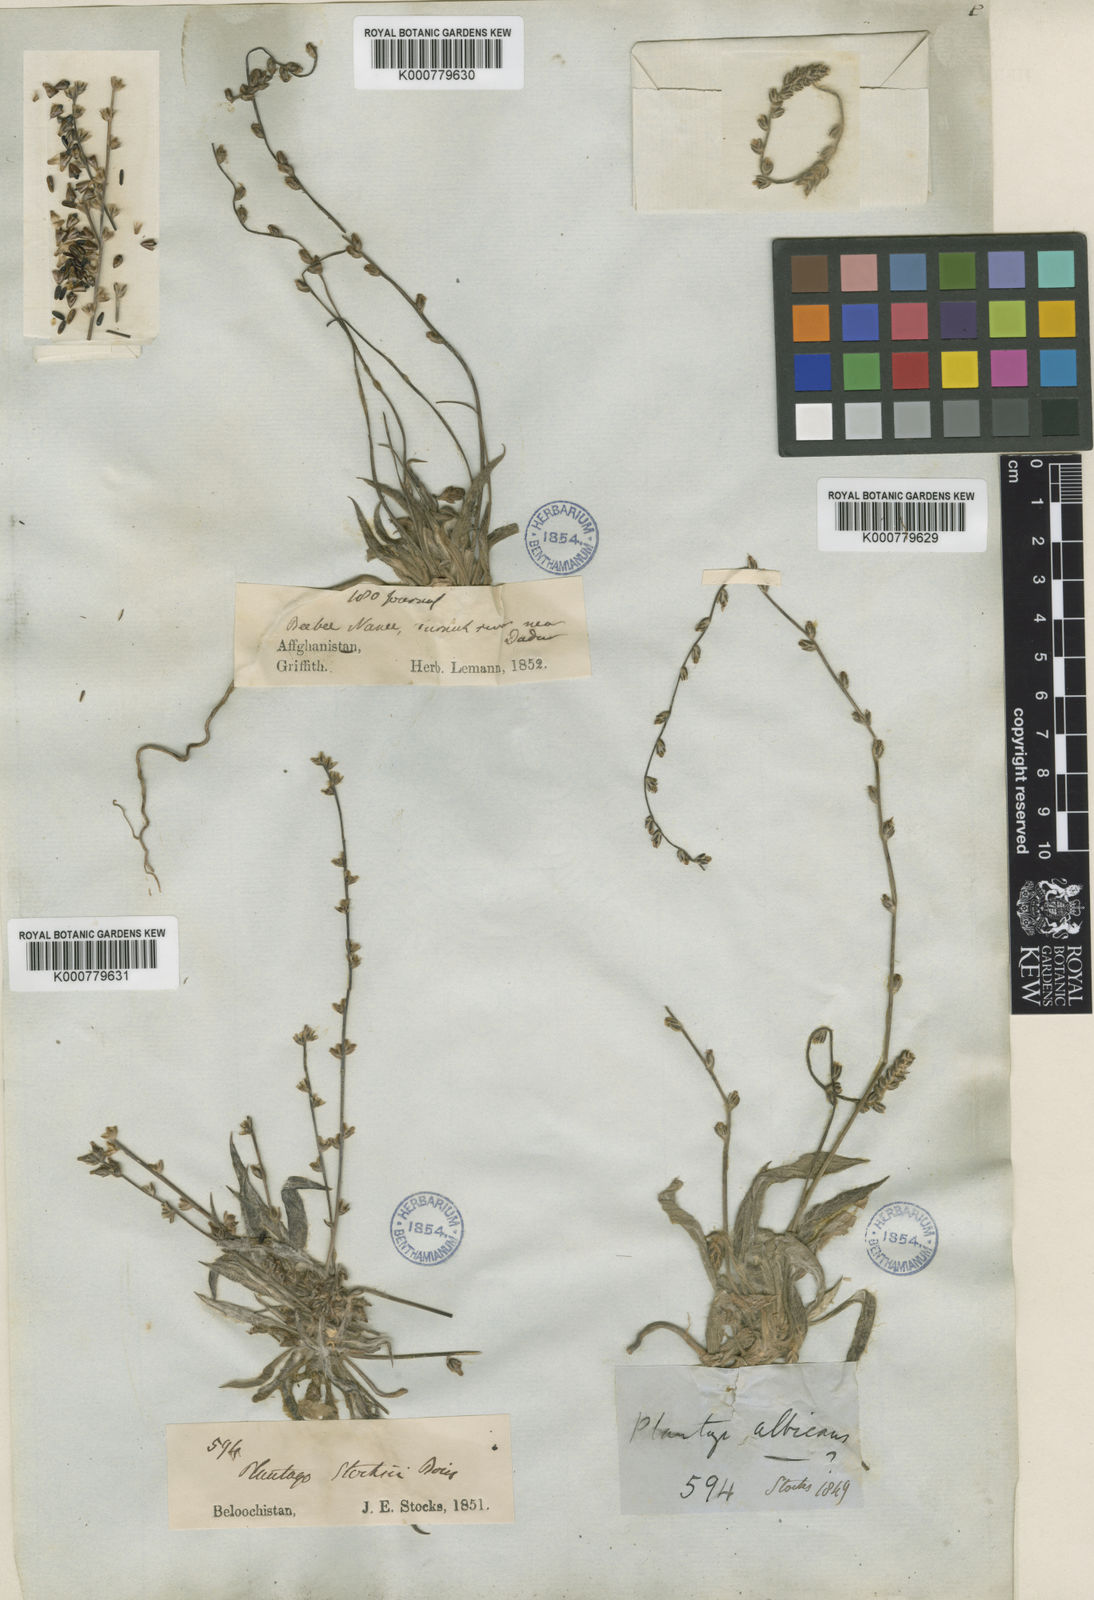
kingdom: Plantae
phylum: Tracheophyta
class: Magnoliopsida
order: Lamiales
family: Plantaginaceae
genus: Plantago
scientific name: Plantago stocksii
